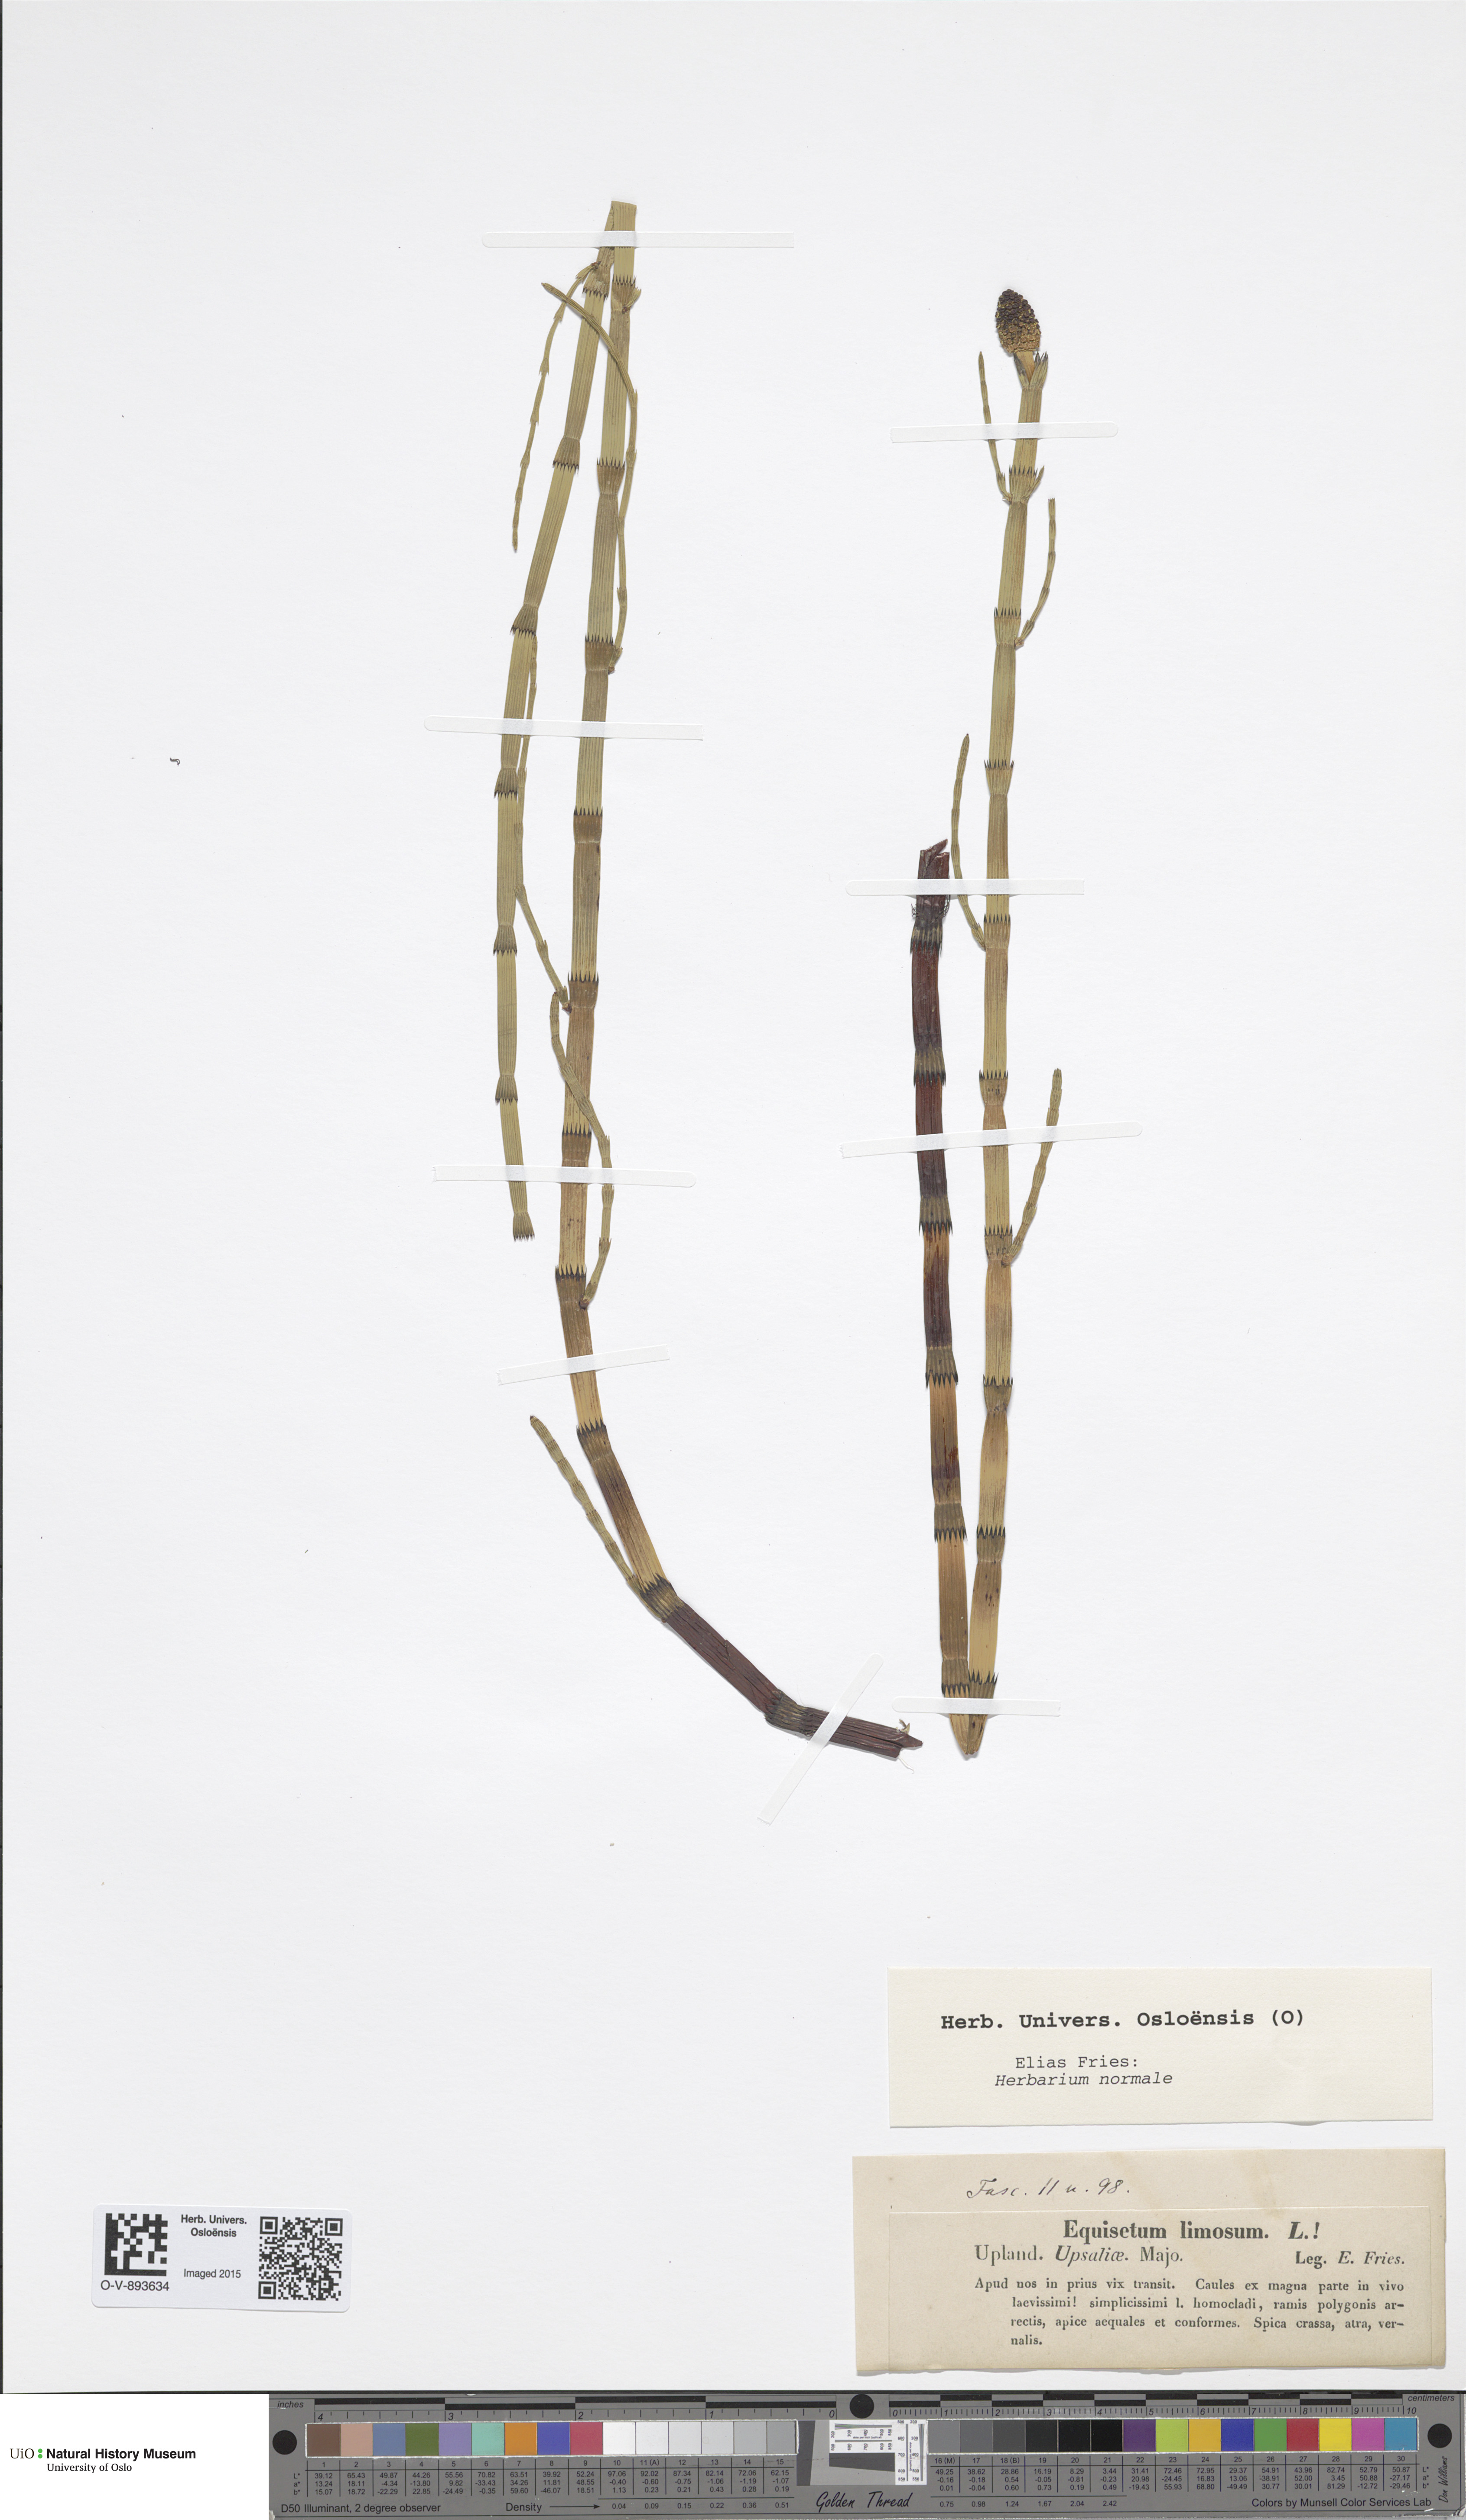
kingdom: Plantae
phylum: Tracheophyta
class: Polypodiopsida
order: Equisetales
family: Equisetaceae
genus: Equisetum
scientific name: Equisetum fluviatile
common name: Water horsetail
